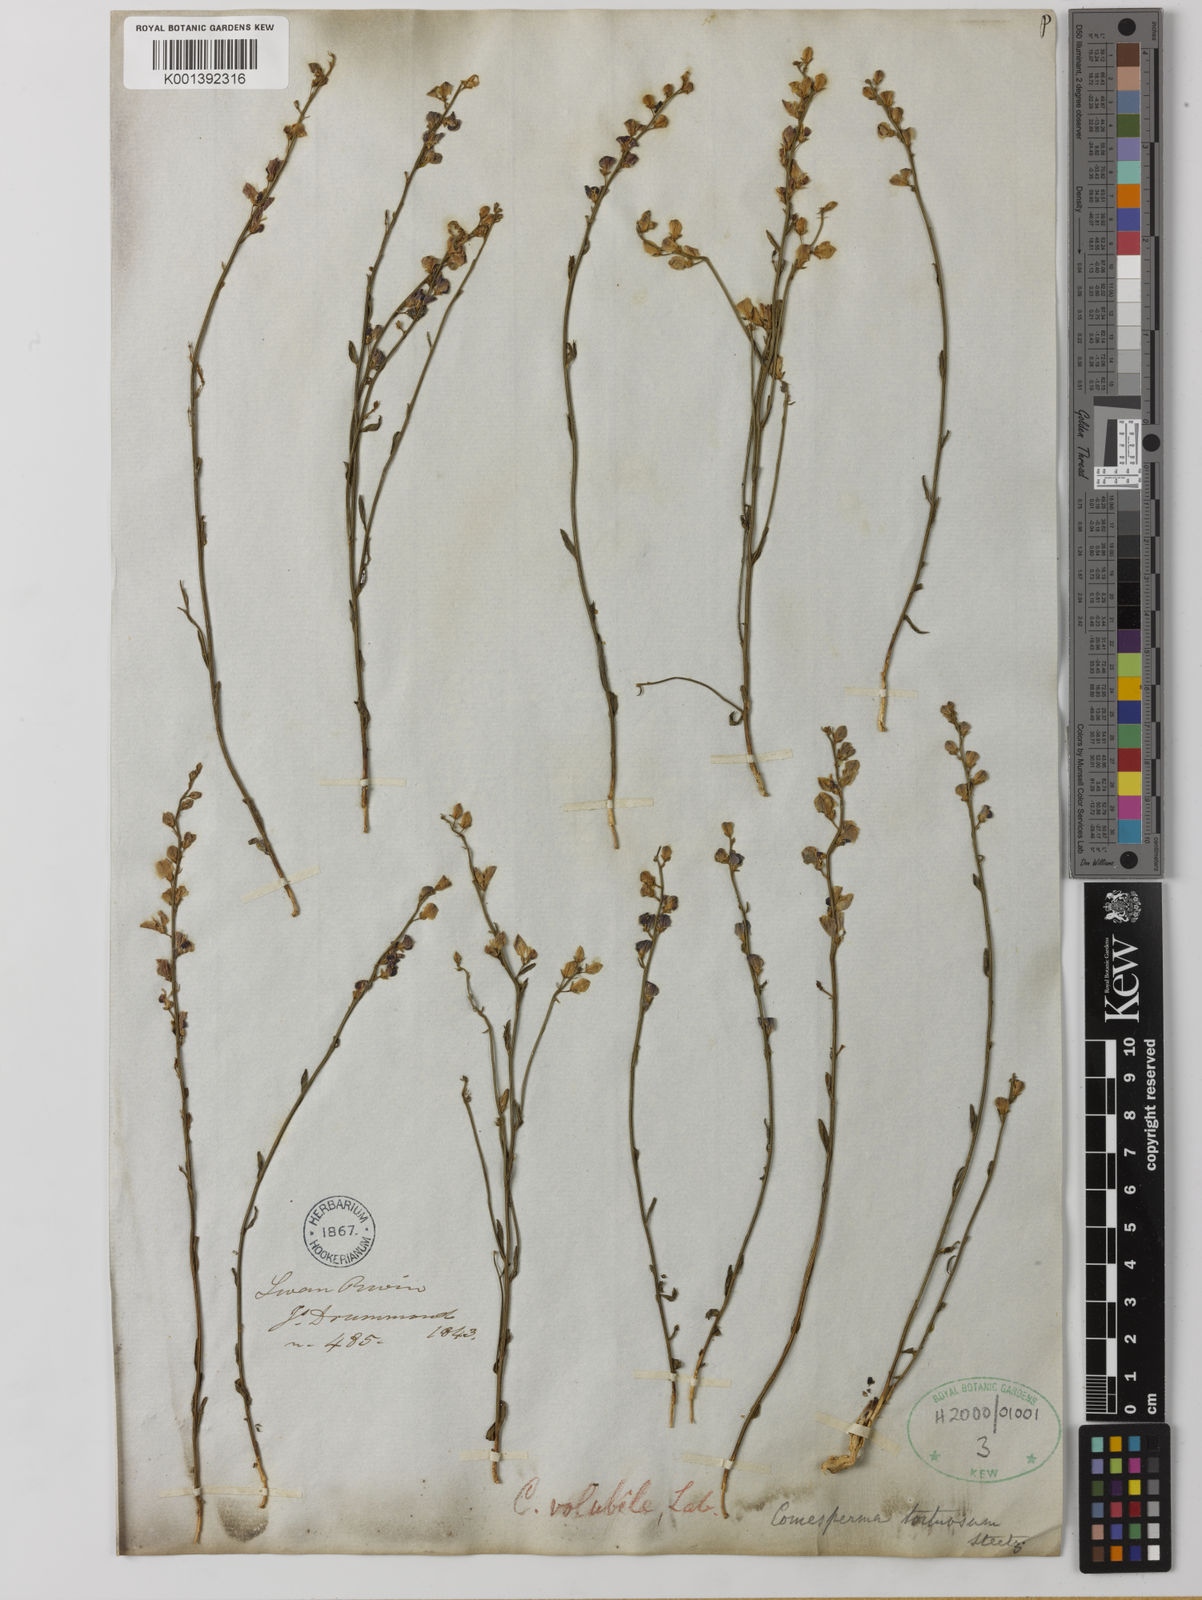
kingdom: Plantae
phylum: Tracheophyta
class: Magnoliopsida
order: Fabales
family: Polygalaceae
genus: Comesperma
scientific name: Comesperma volubile
